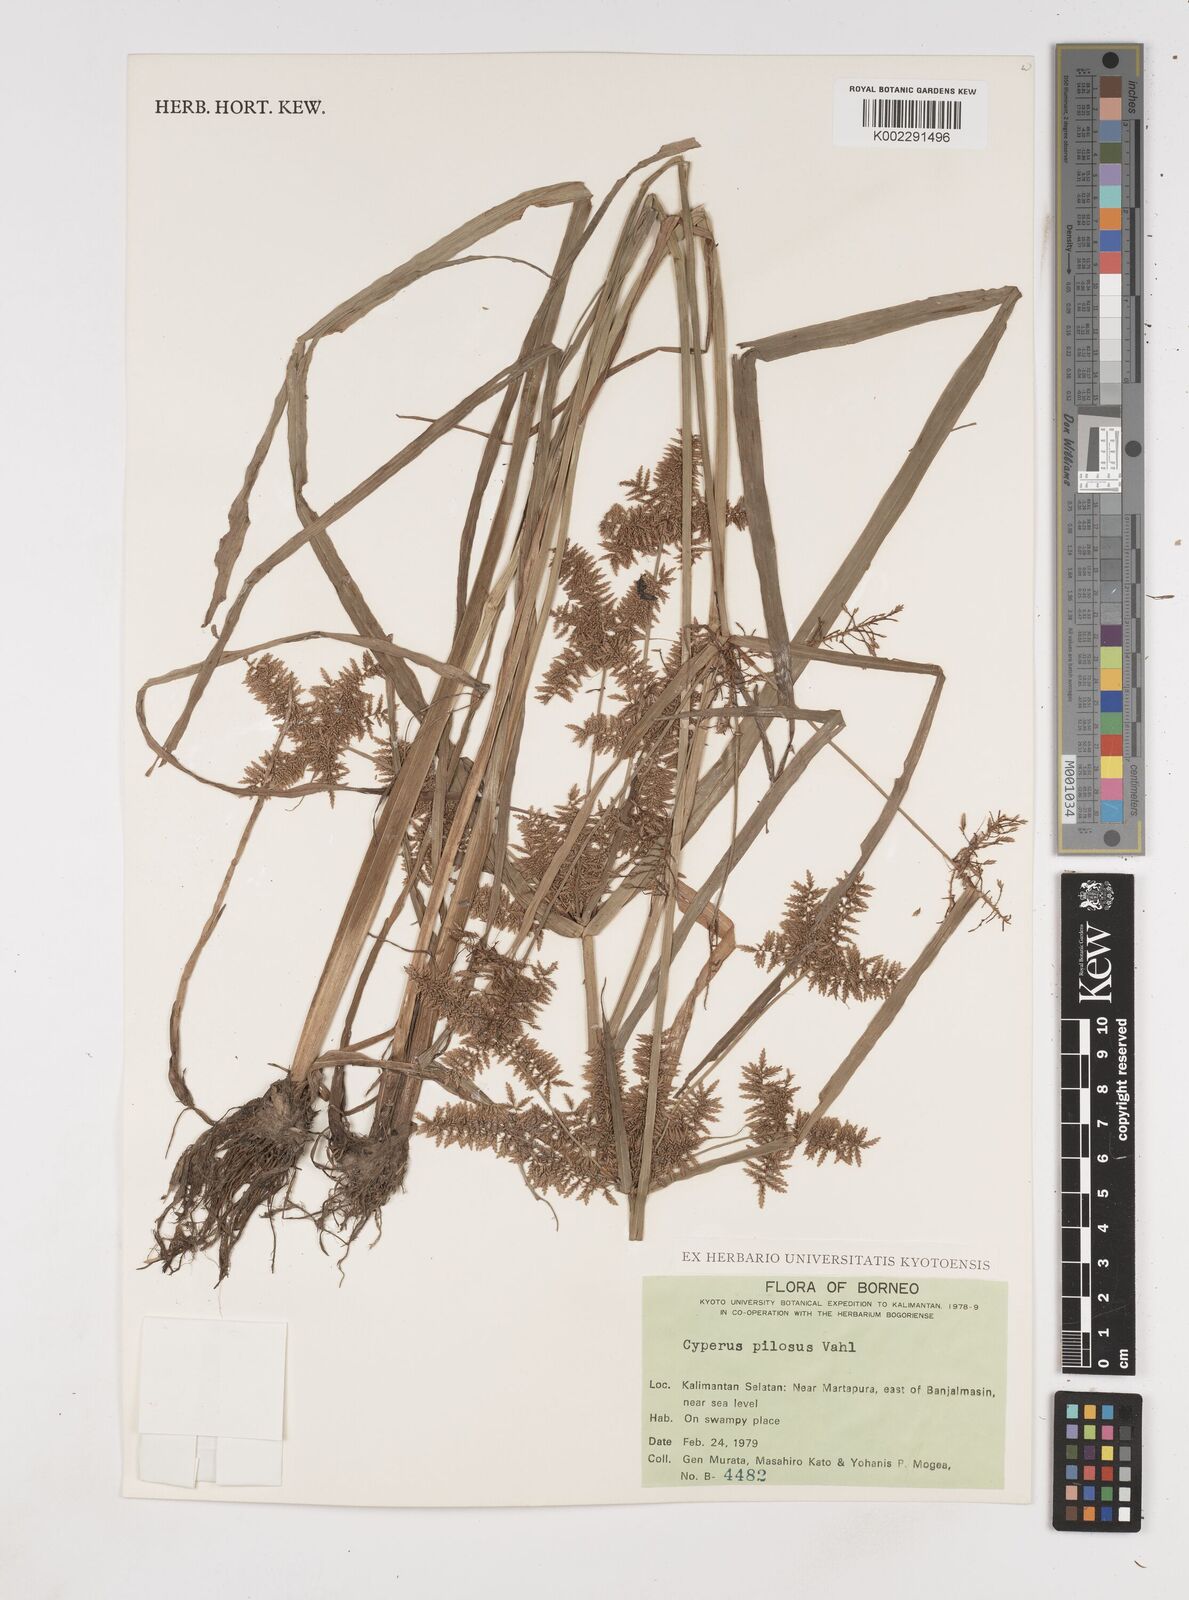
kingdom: Plantae
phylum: Tracheophyta
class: Liliopsida
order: Poales
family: Cyperaceae
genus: Cyperus
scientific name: Cyperus pilosus
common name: Fuzzy flatsedge
